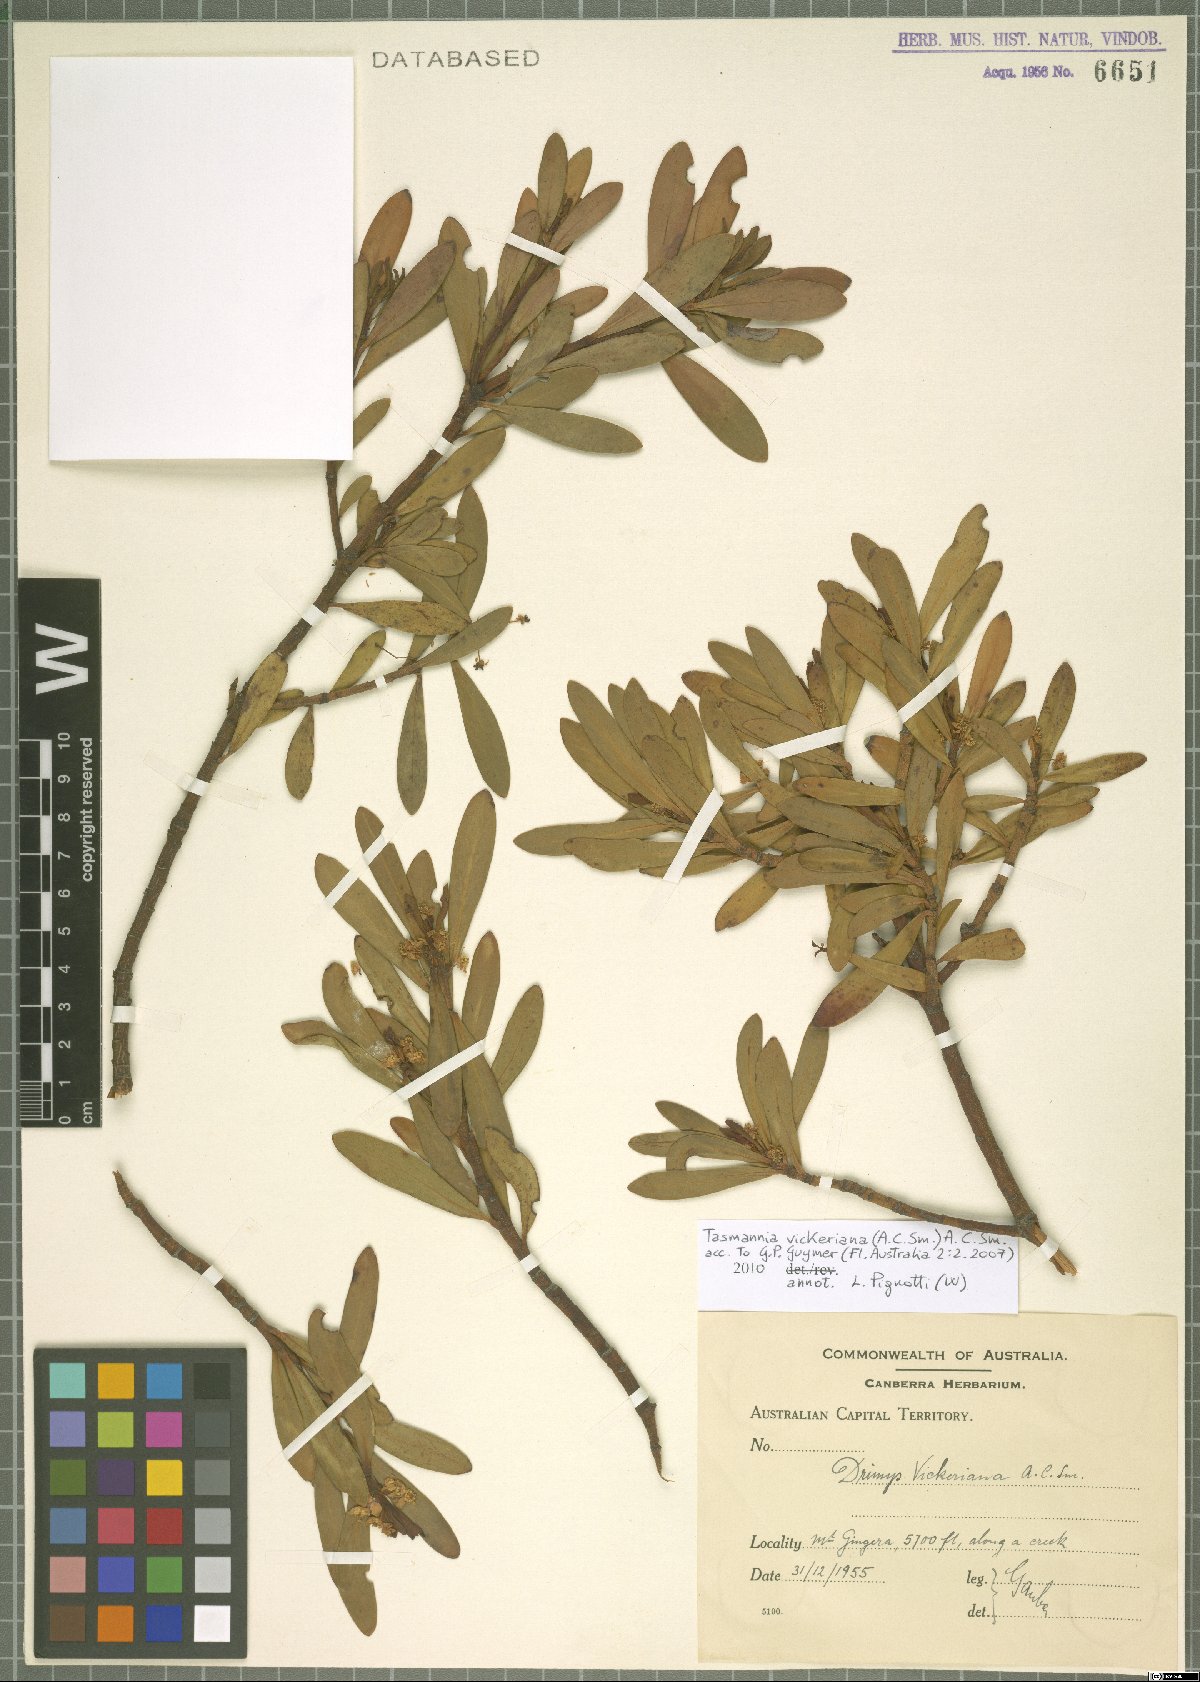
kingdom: Plantae
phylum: Tracheophyta
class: Magnoliopsida
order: Canellales
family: Winteraceae
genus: Drimys
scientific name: Drimys vickeriana
